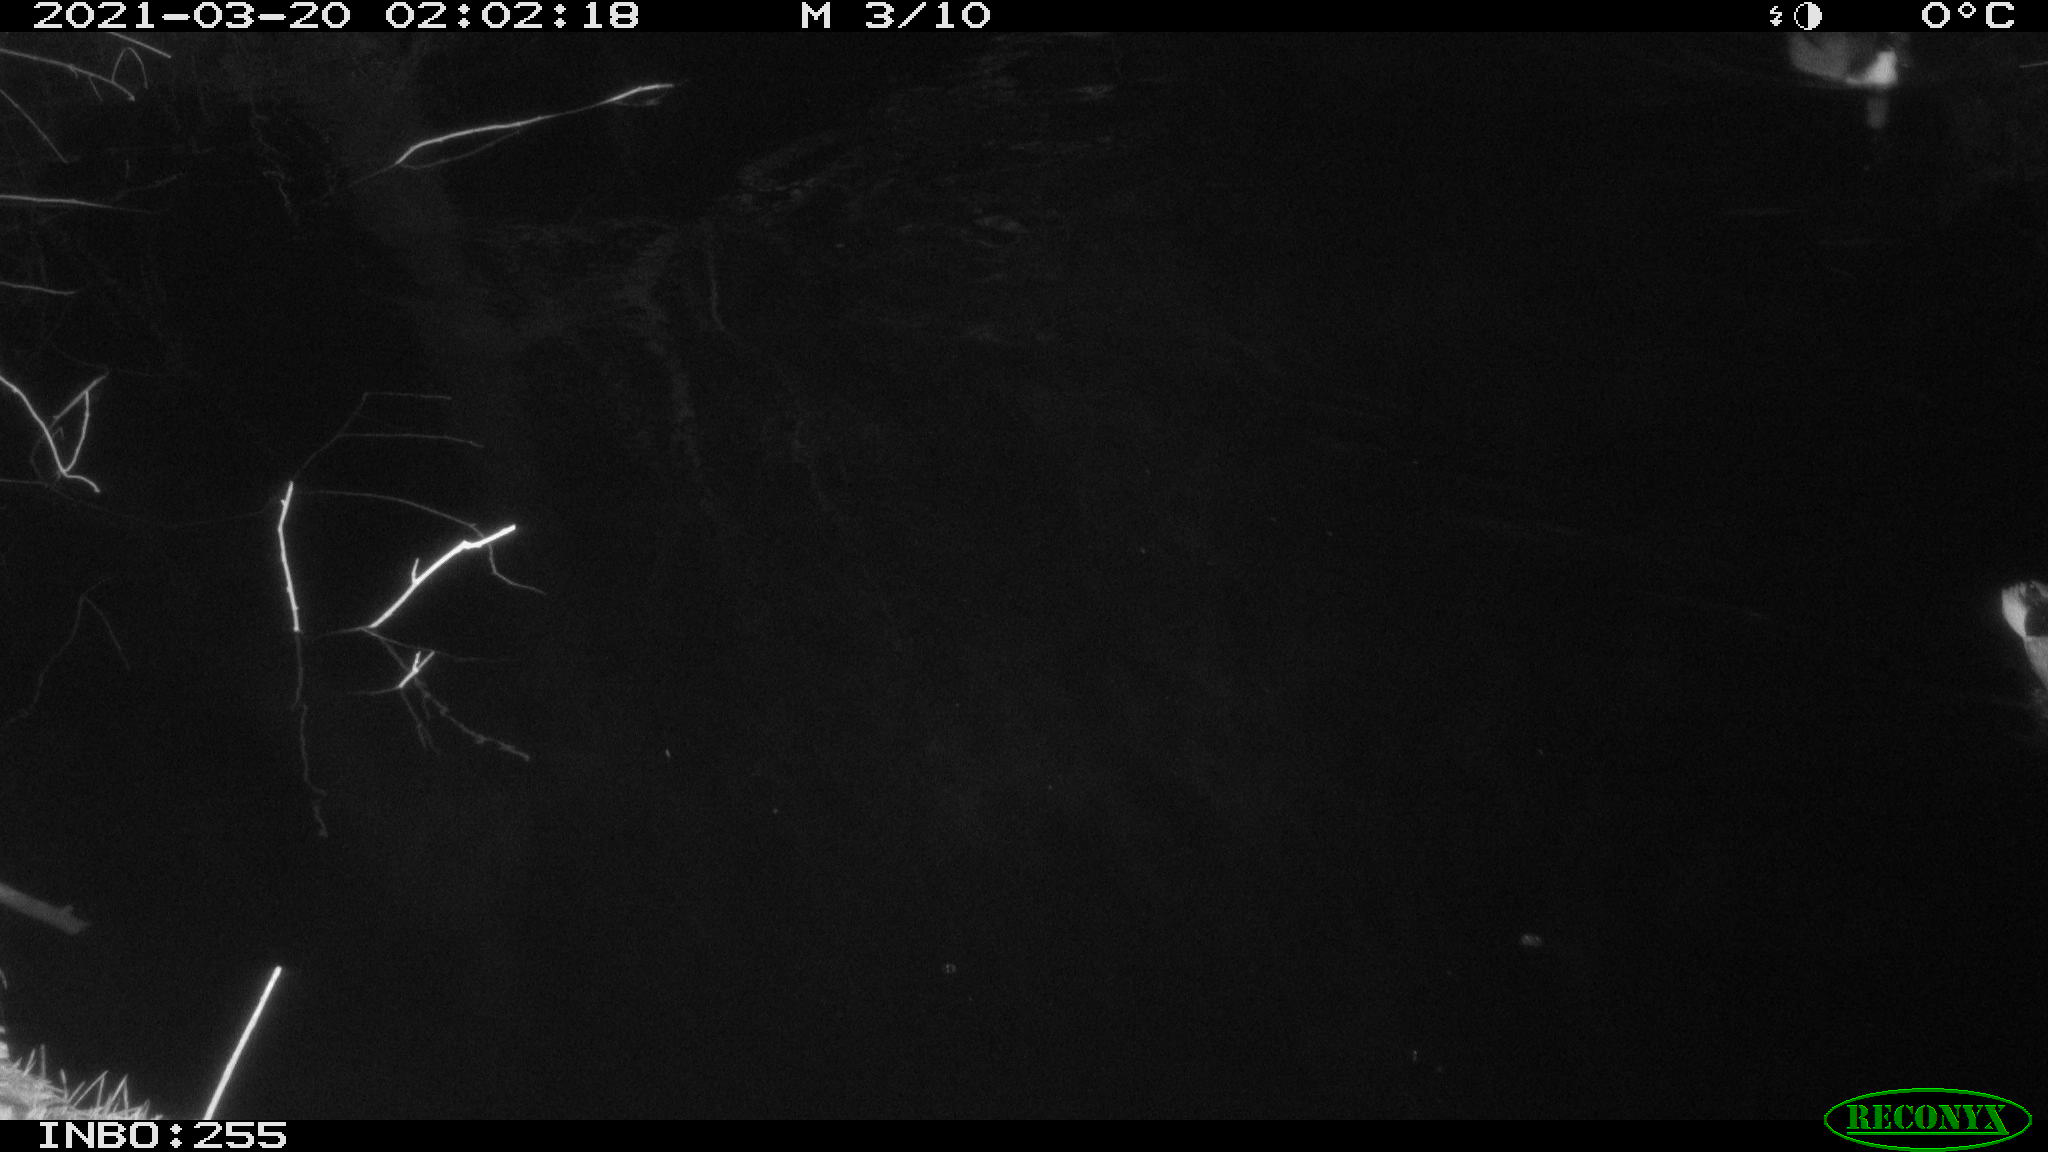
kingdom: Animalia
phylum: Chordata
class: Aves
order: Anseriformes
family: Anatidae
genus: Anas
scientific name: Anas platyrhynchos
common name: Mallard
